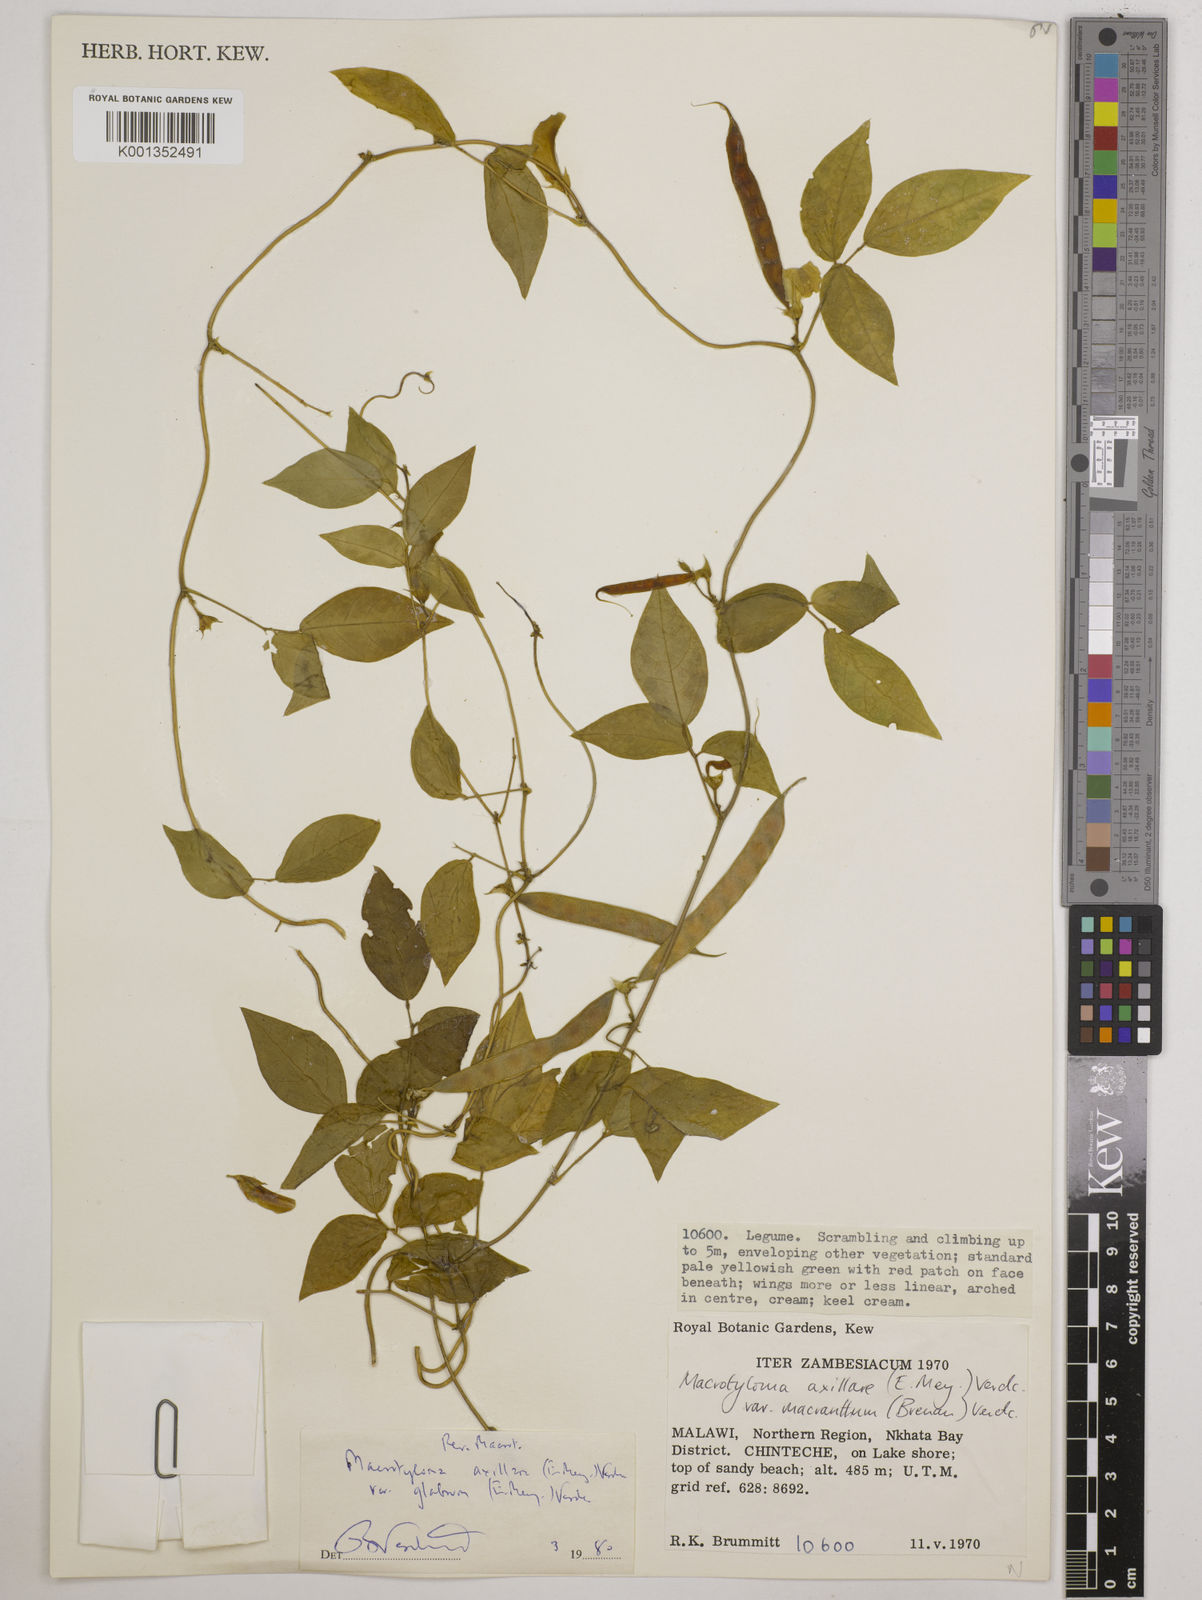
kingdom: Plantae
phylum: Tracheophyta
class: Magnoliopsida
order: Fabales
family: Fabaceae
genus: Macrotyloma
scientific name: Macrotyloma
